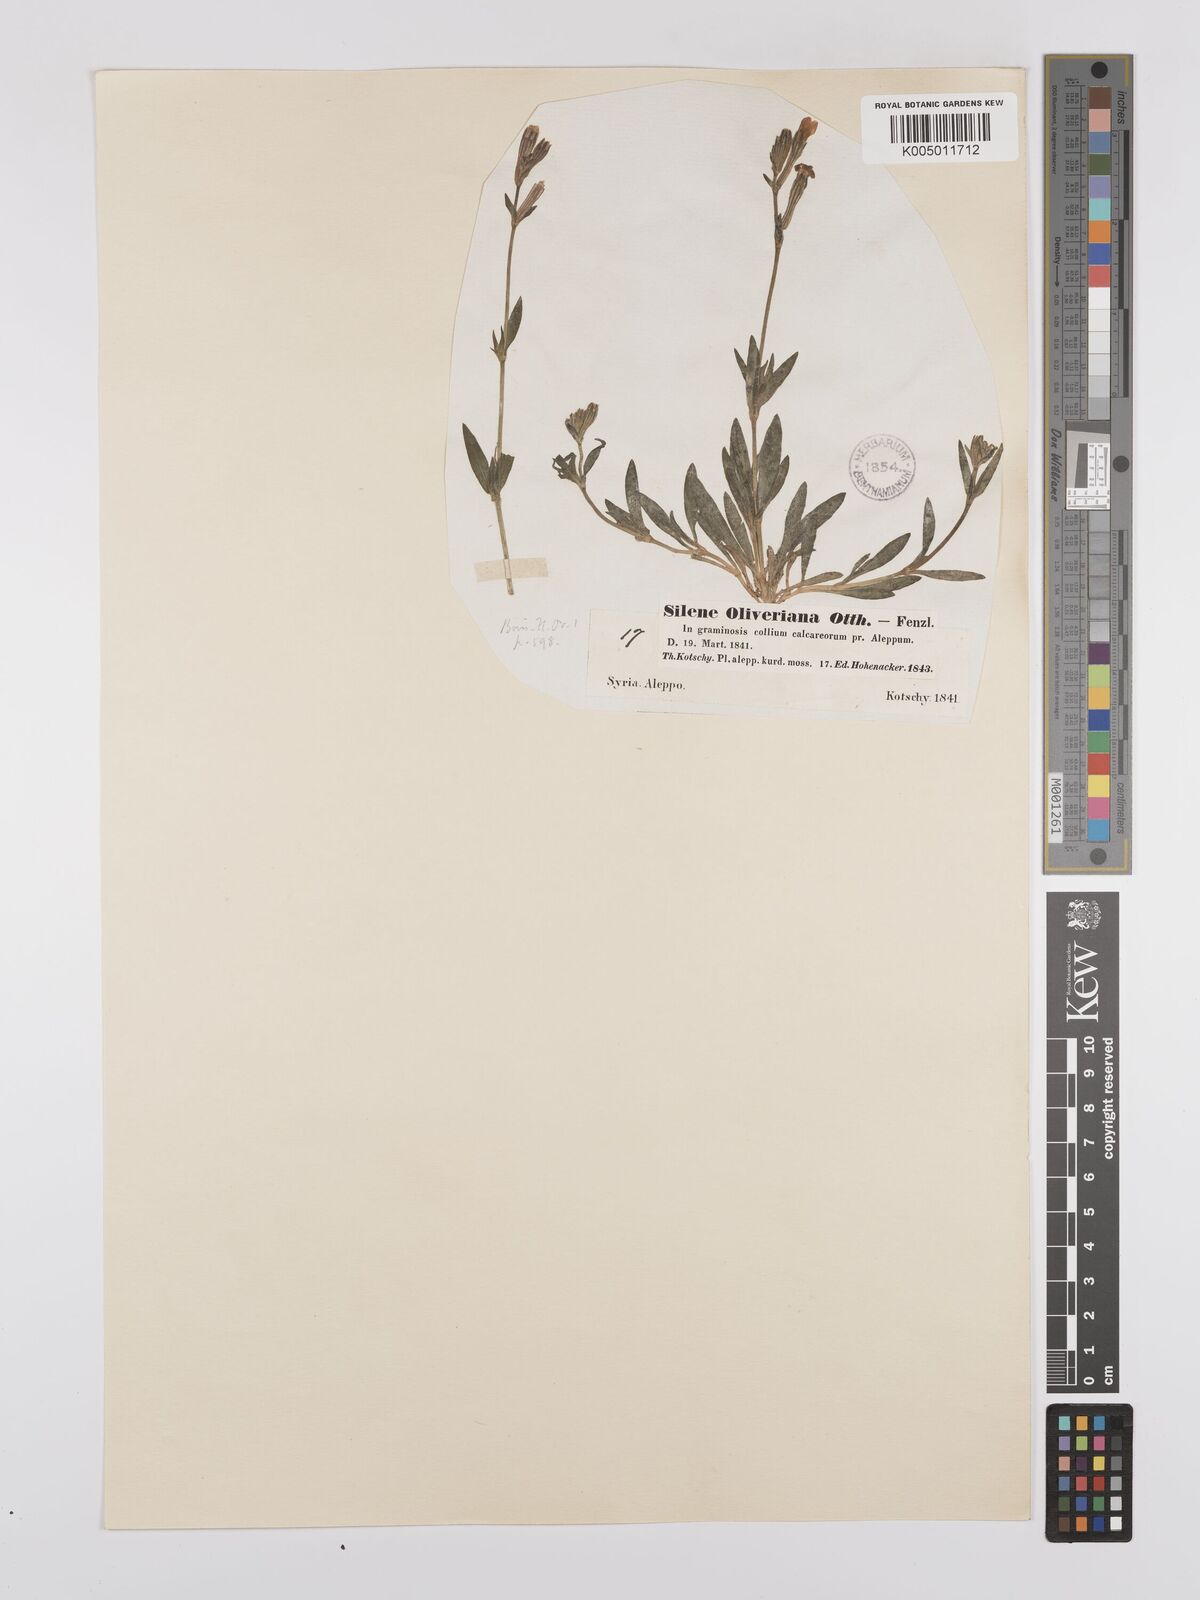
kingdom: Plantae
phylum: Tracheophyta
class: Magnoliopsida
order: Caryophyllales
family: Caryophyllaceae
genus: Silene
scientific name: Silene oliveriana
